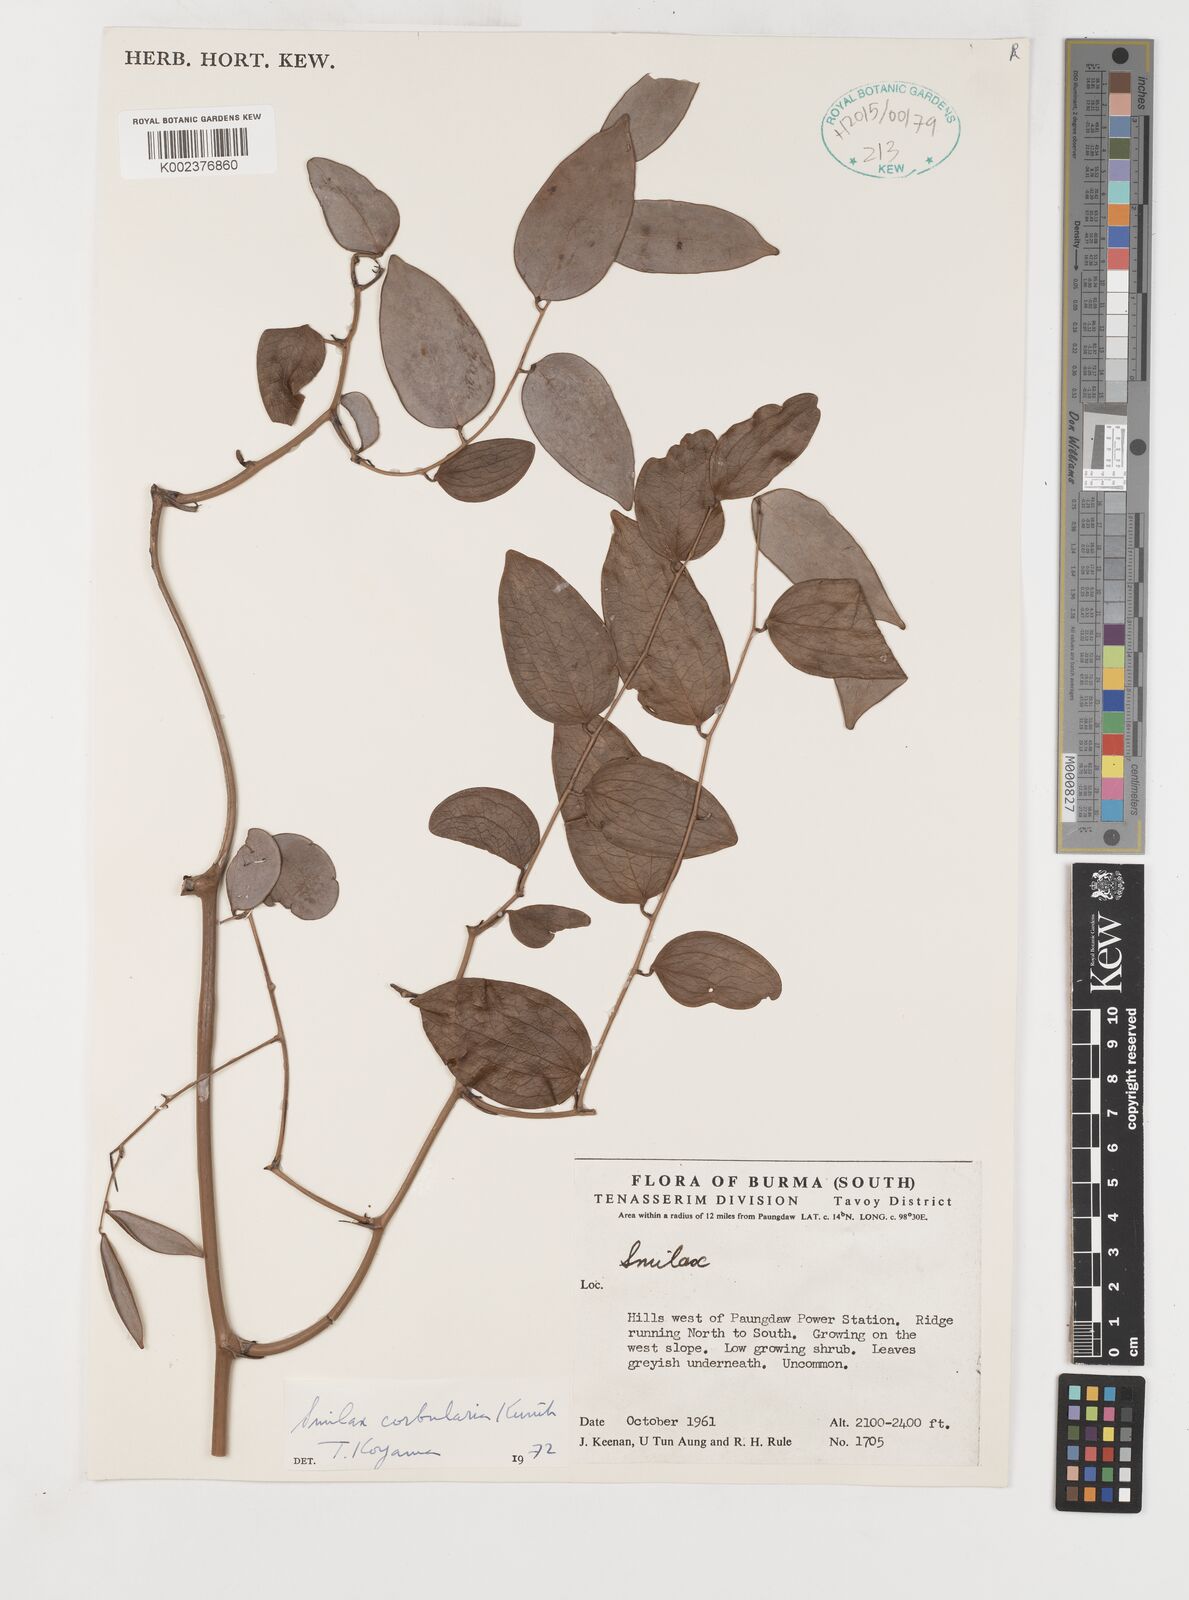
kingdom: Plantae
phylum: Tracheophyta
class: Liliopsida
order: Liliales
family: Smilacaceae
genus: Smilax
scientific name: Smilax corbularia
